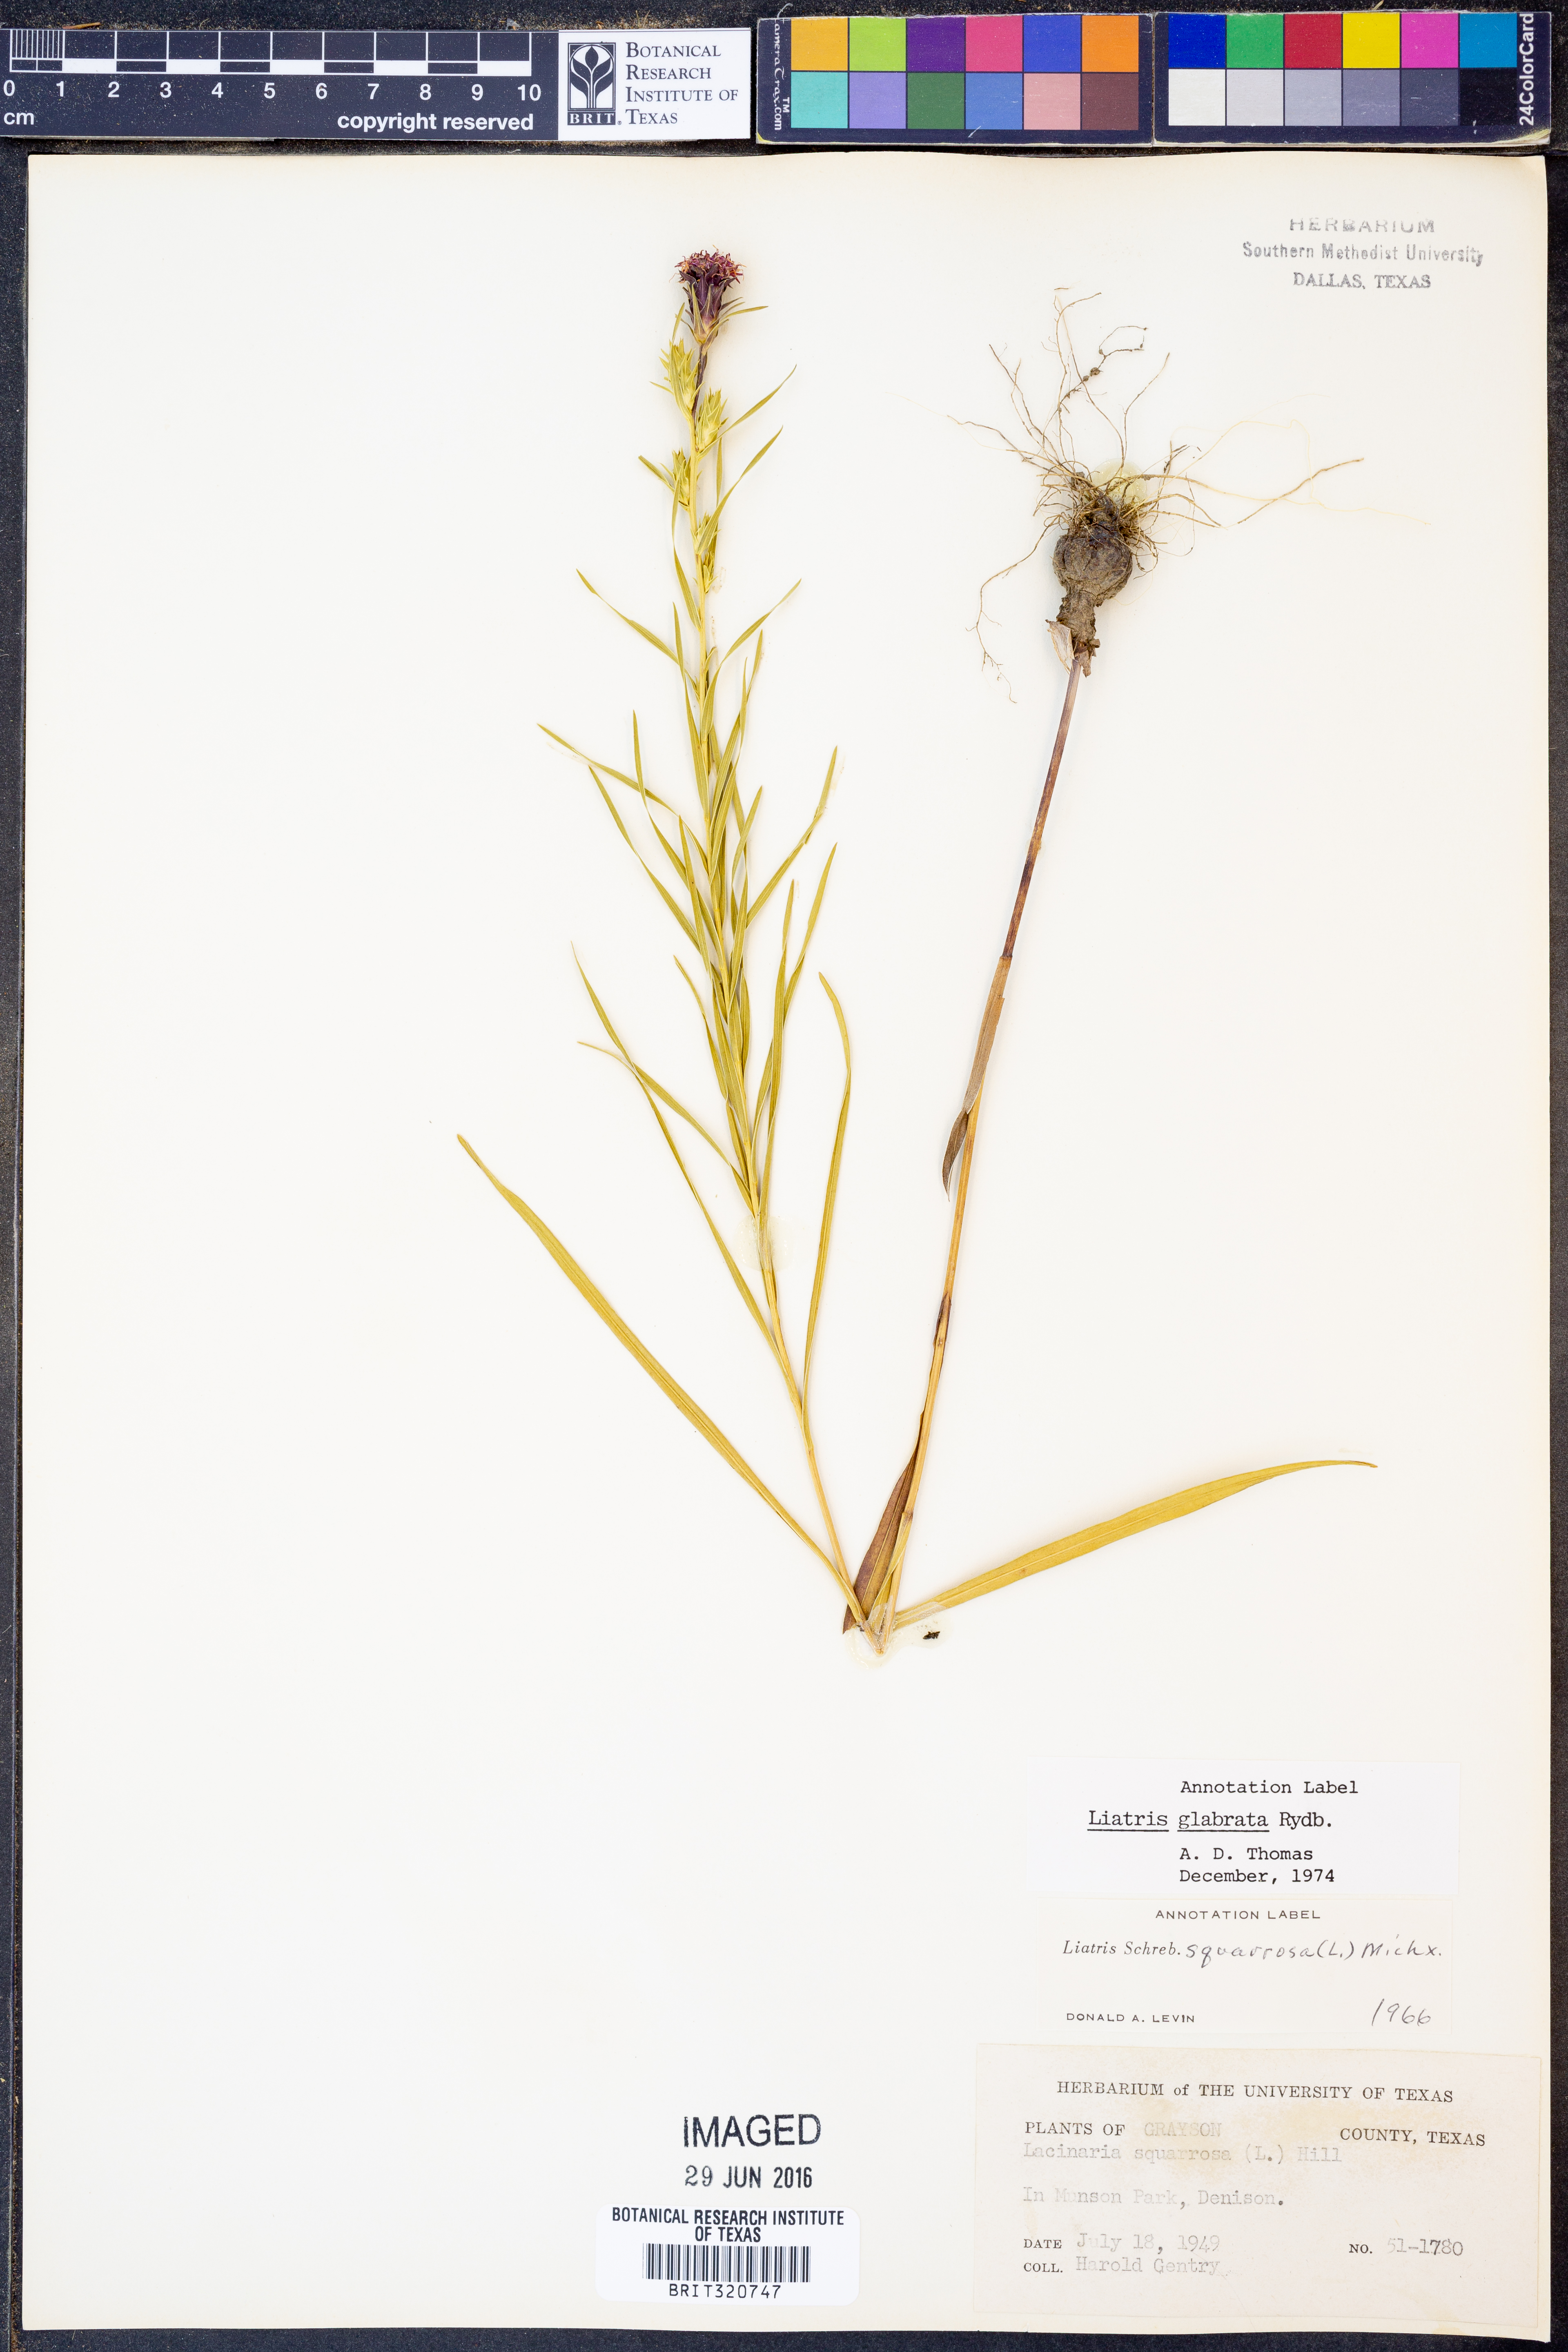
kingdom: Plantae
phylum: Tracheophyta
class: Magnoliopsida
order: Asterales
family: Asteraceae
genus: Liatris
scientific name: Liatris spicata
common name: Florist gayfeather
